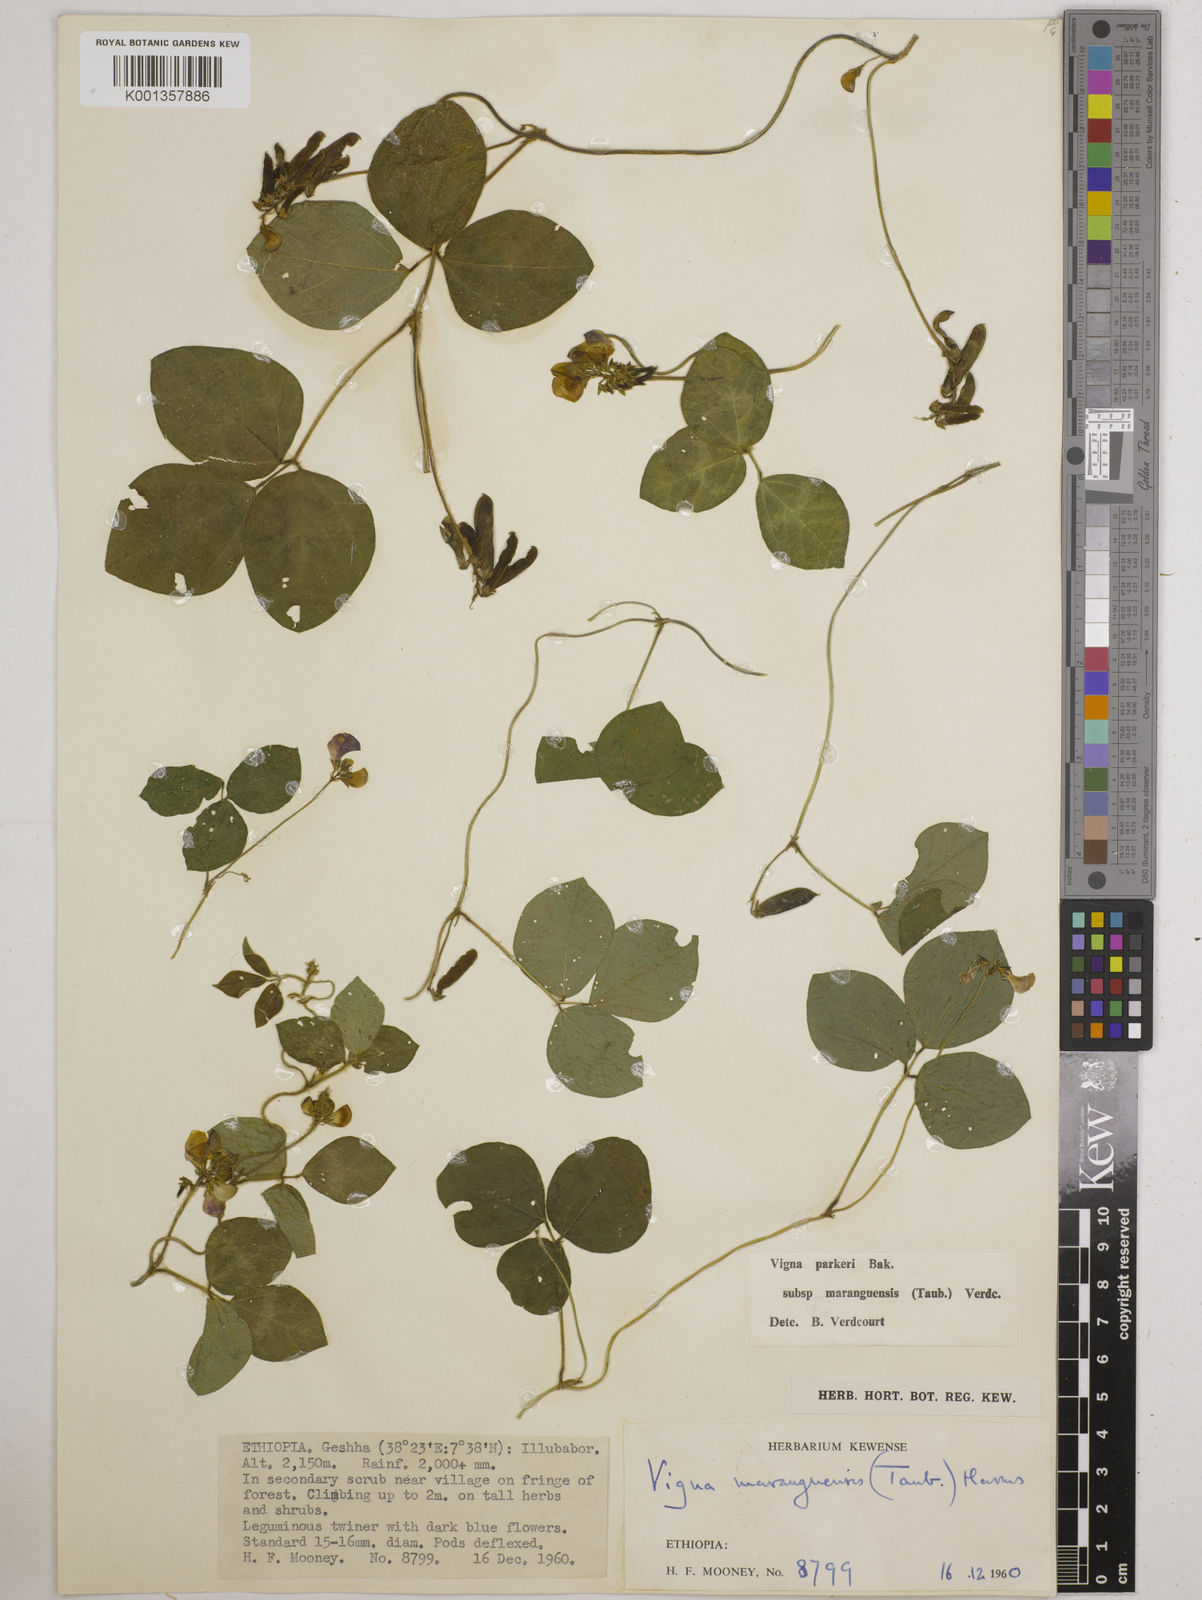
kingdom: Plantae
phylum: Tracheophyta
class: Magnoliopsida
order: Fabales
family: Fabaceae
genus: Vigna
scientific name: Vigna
